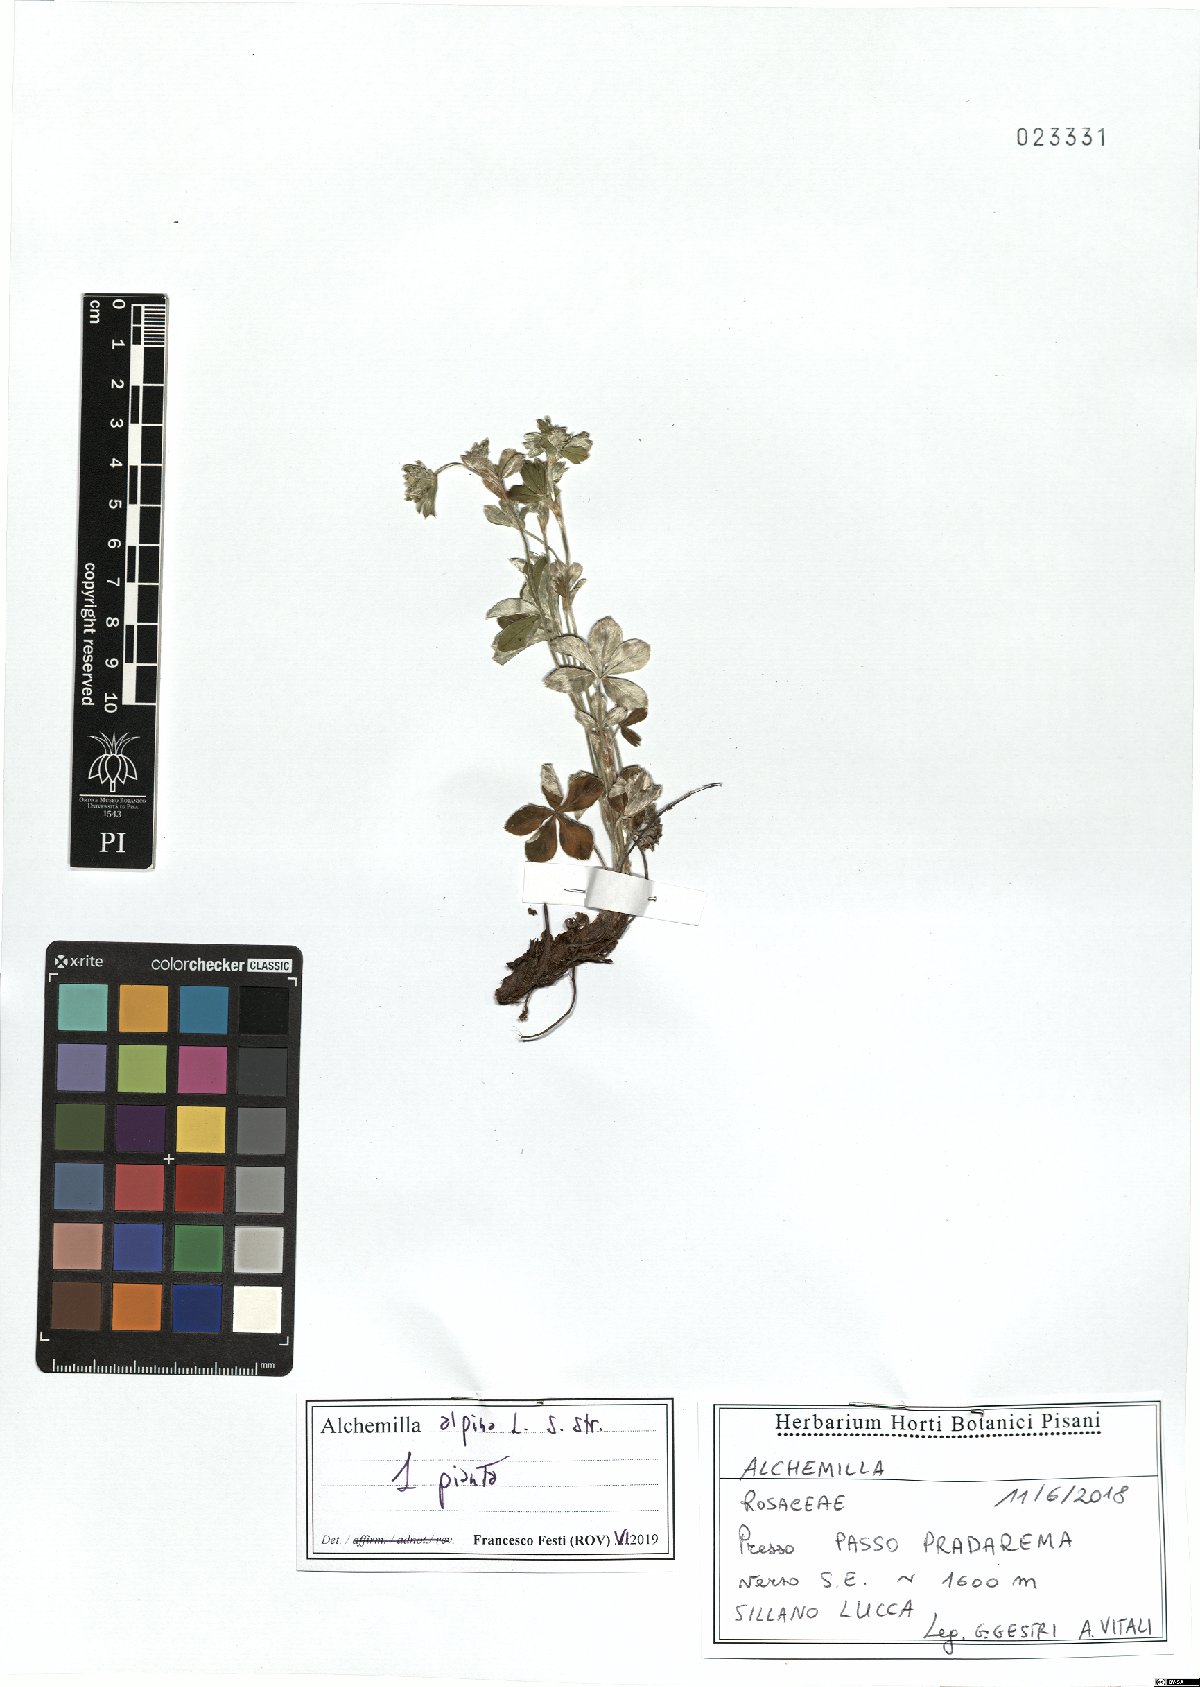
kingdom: Plantae
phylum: Tracheophyta
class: Magnoliopsida
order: Rosales
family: Rosaceae
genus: Alchemilla
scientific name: Alchemilla alpina
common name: Alpine lady's-mantle
